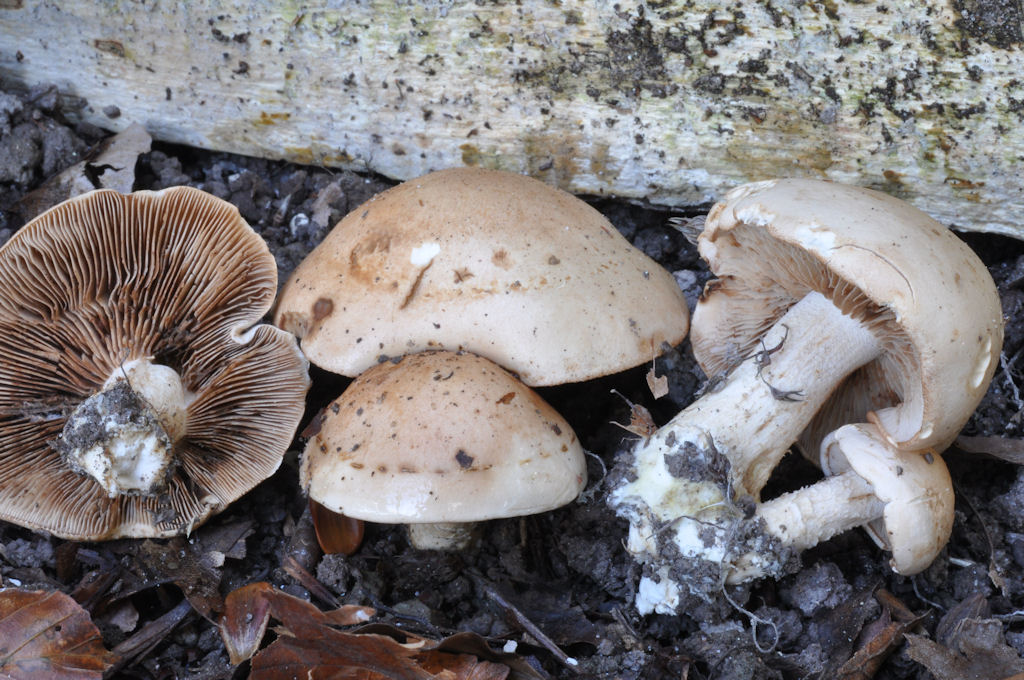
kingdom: Fungi
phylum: Basidiomycota
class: Agaricomycetes
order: Agaricales
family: Hymenogastraceae
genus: Hebeloma
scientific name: Hebeloma laterinum
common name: kakao-tåreblad
